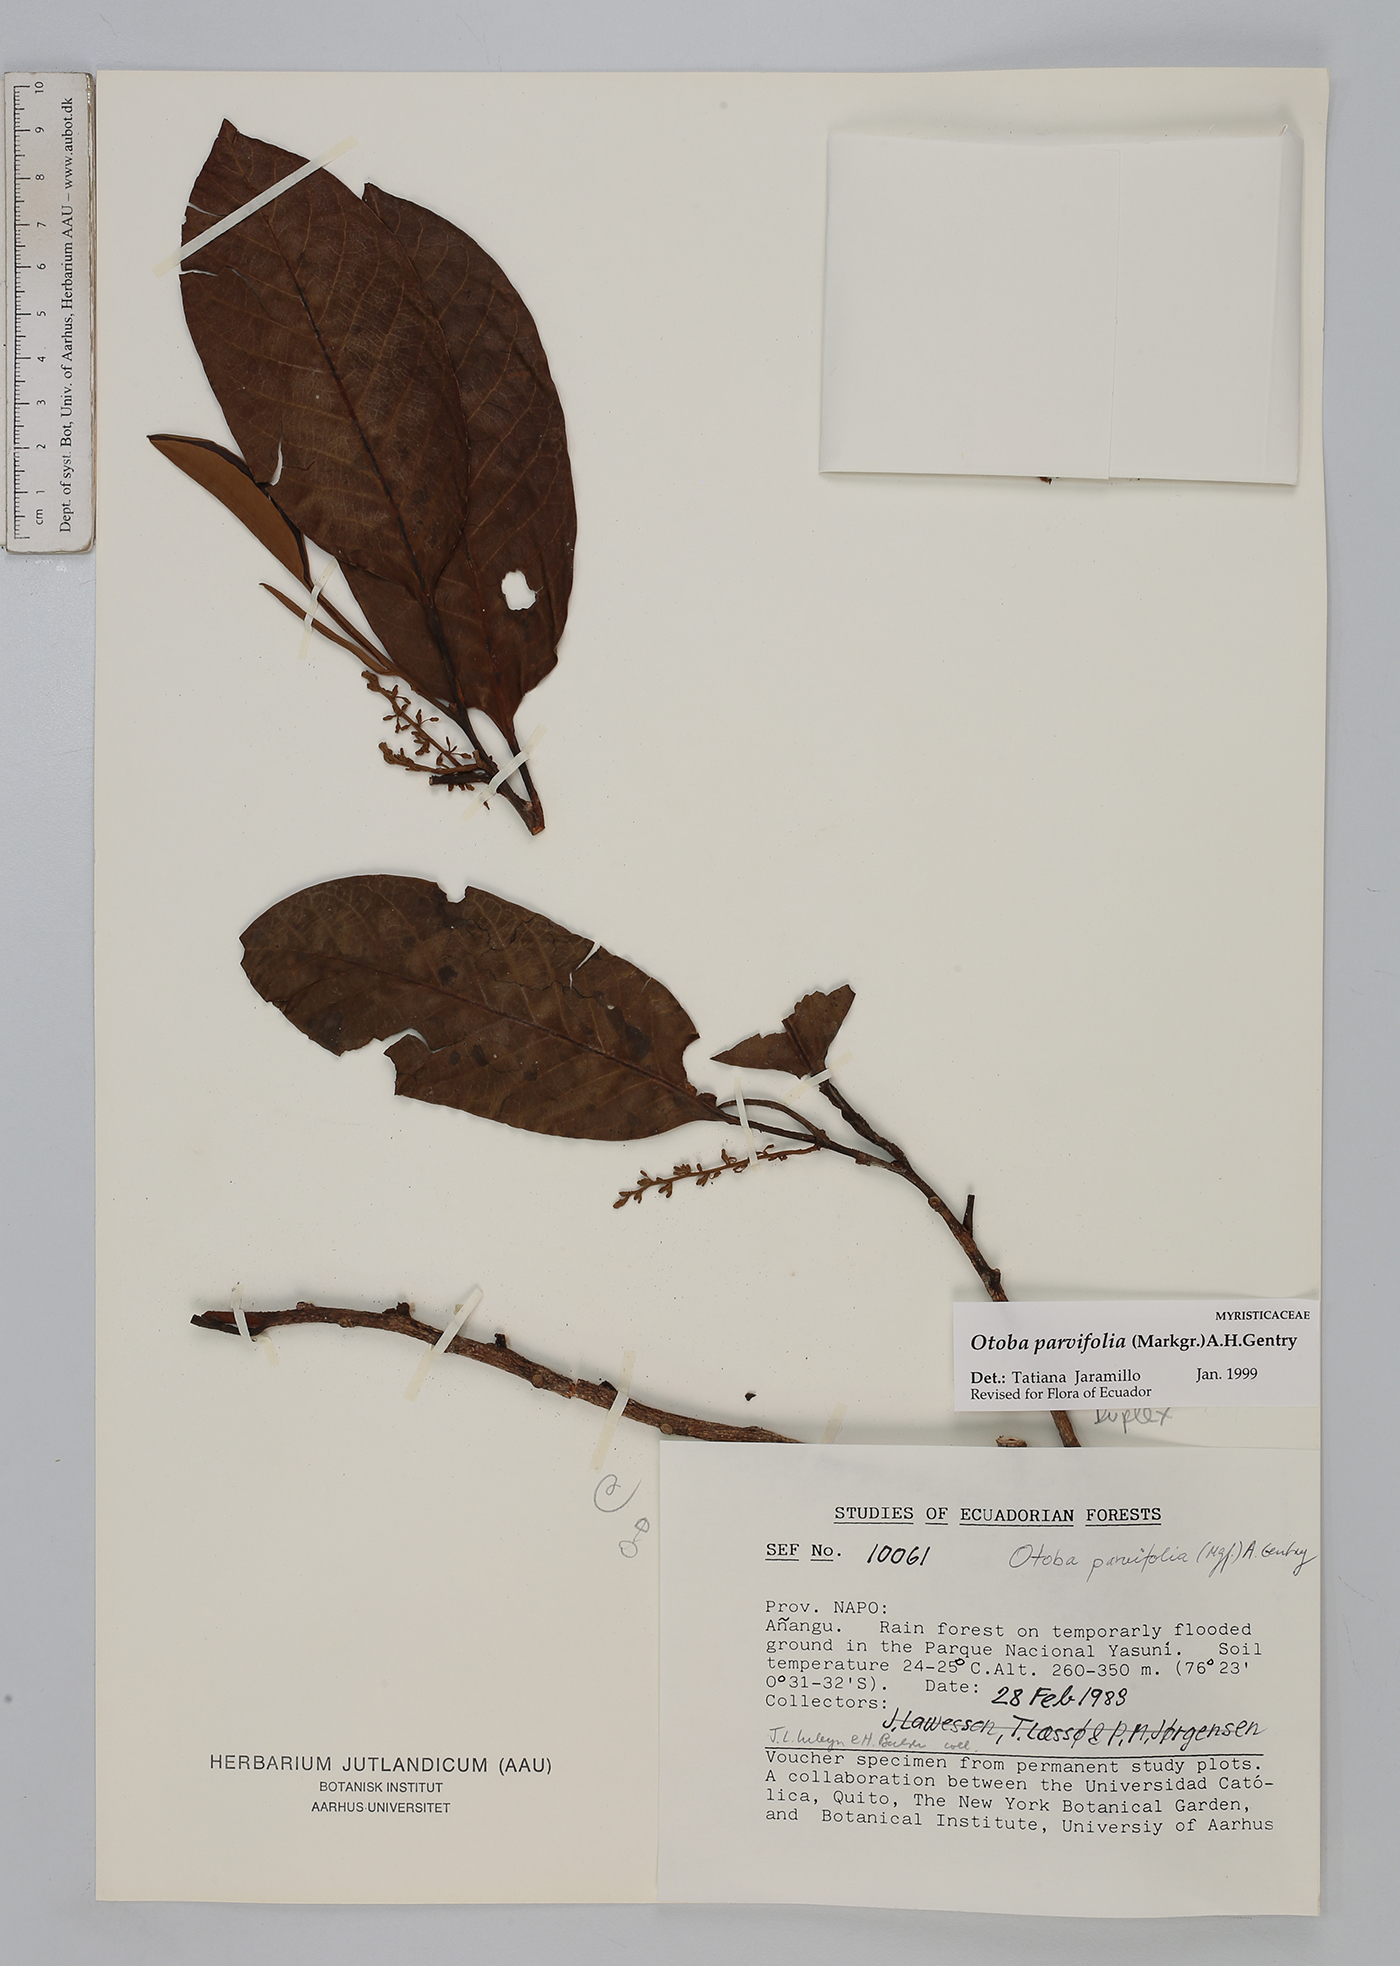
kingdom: Plantae
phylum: Tracheophyta
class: Magnoliopsida
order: Magnoliales
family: Myristicaceae
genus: Otoba
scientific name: Otoba parvifolia
